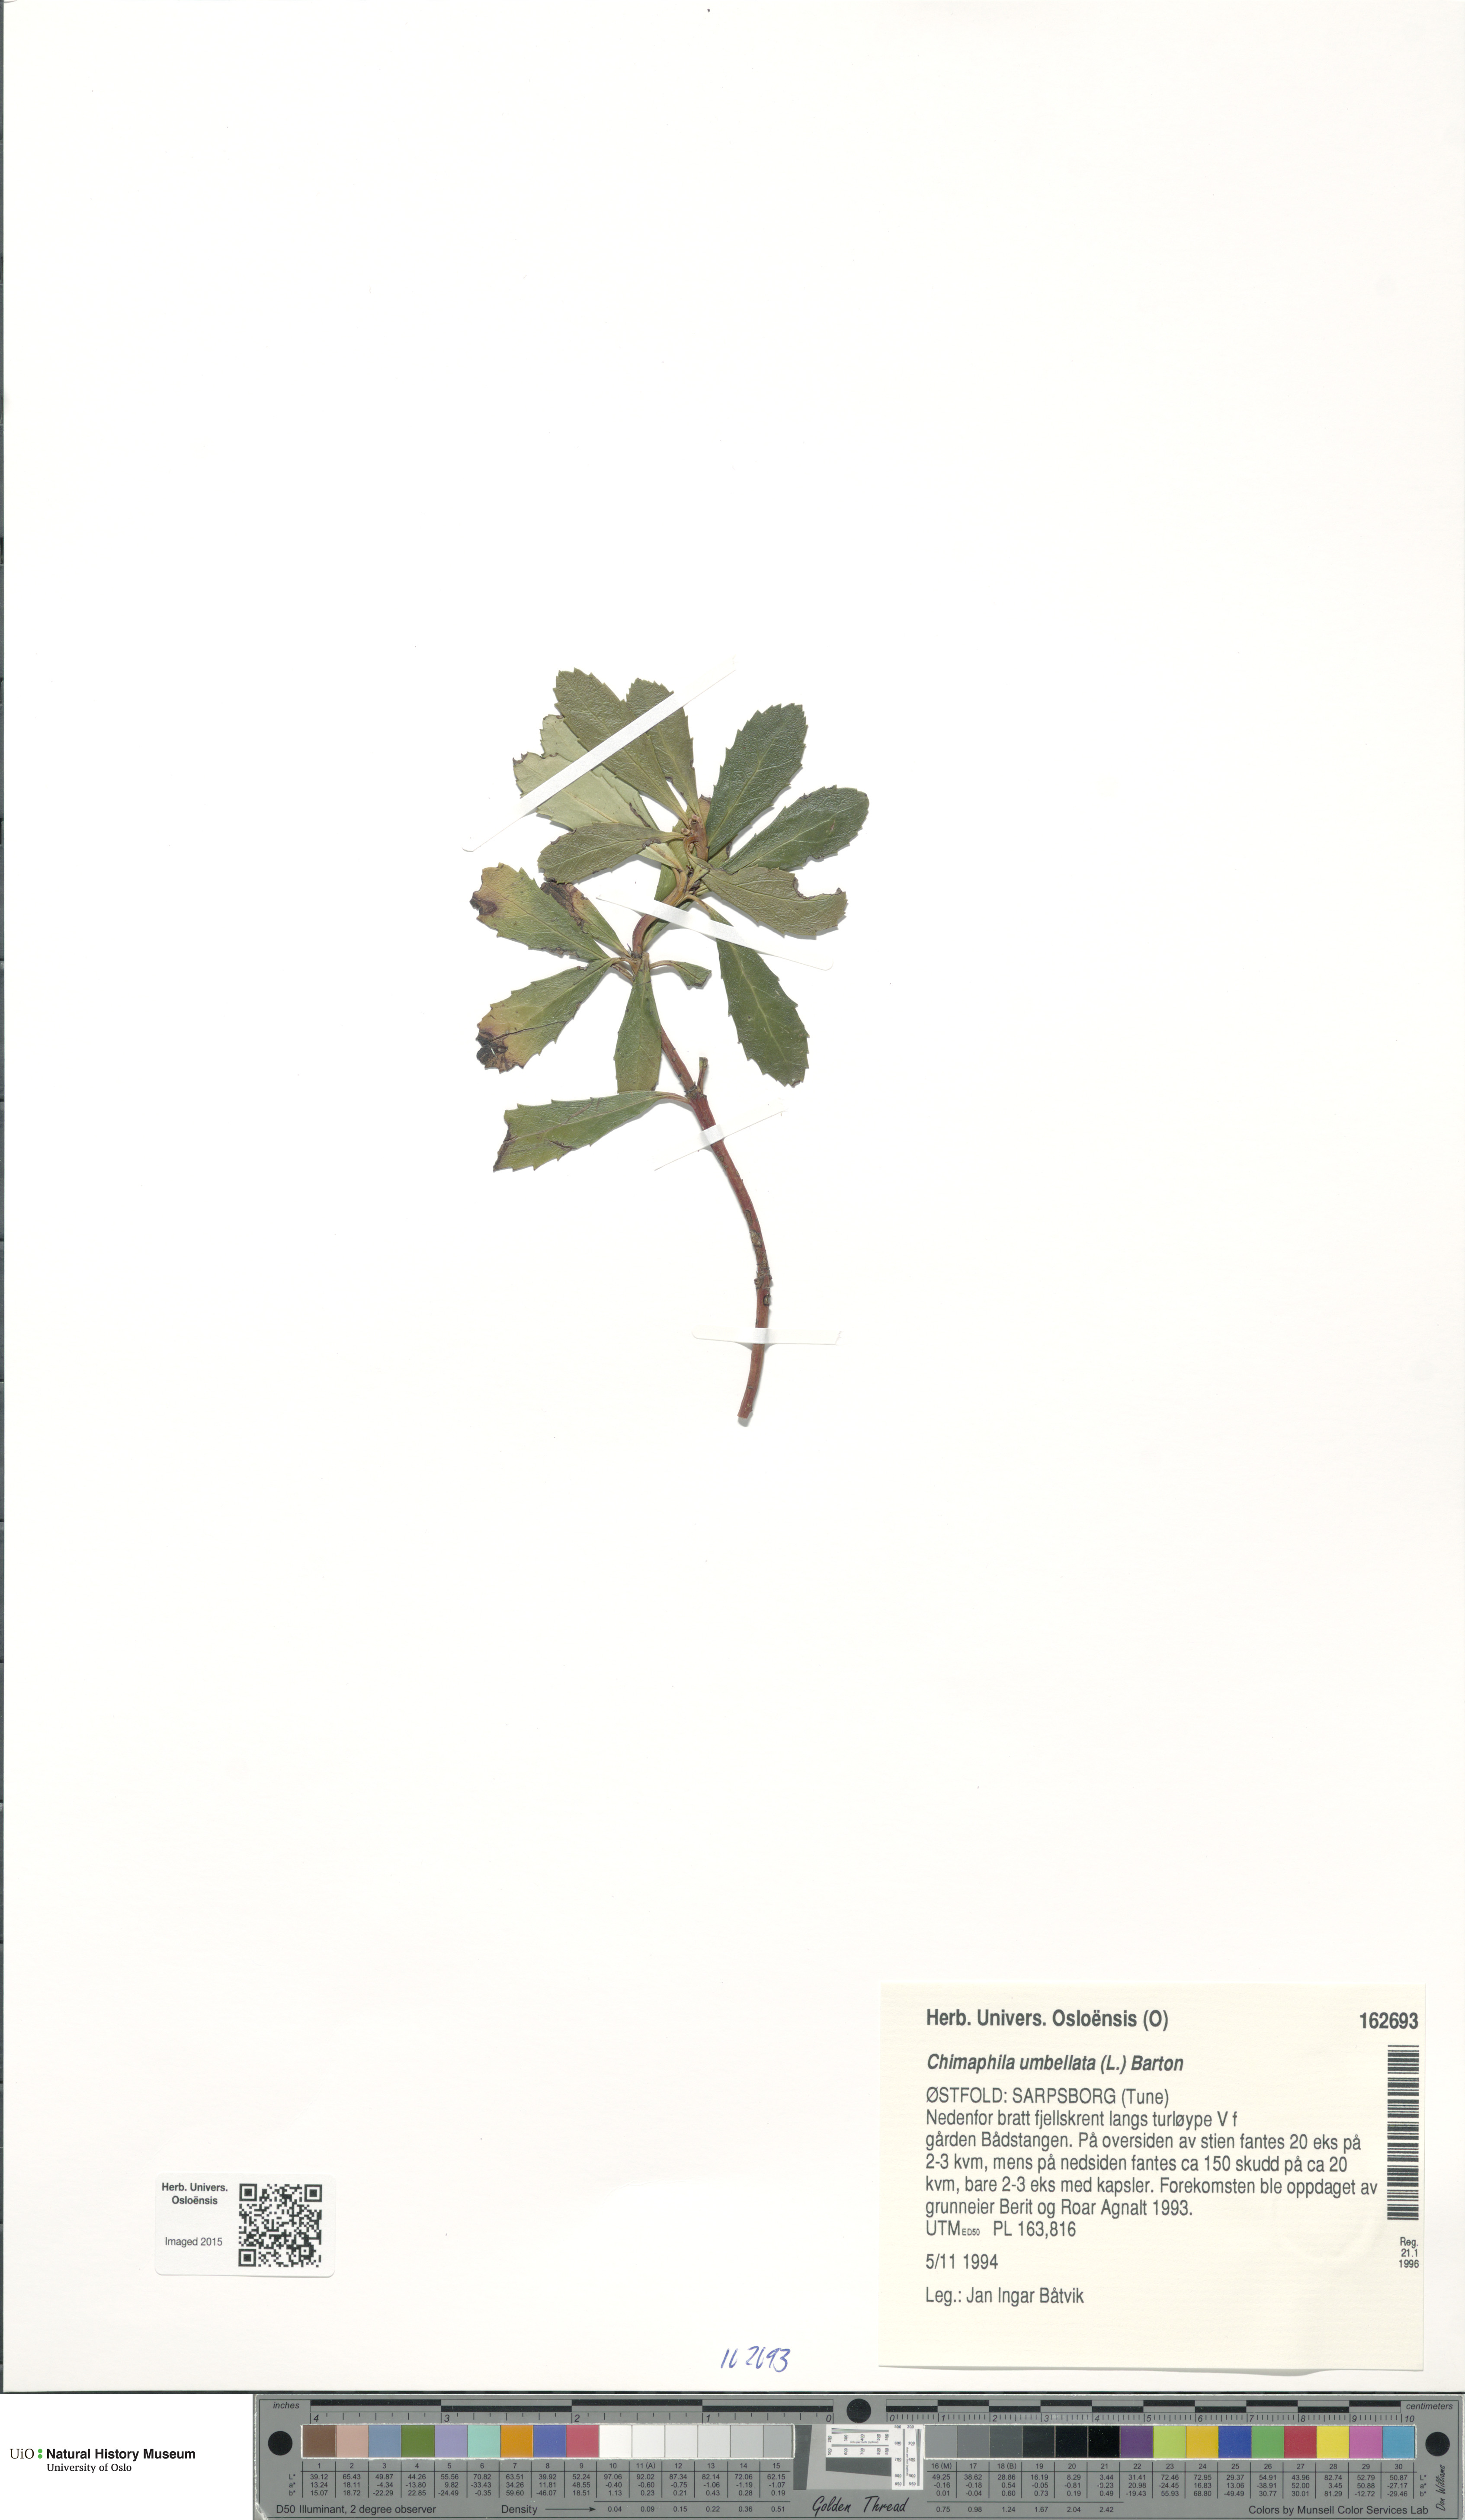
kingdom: Plantae
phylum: Tracheophyta
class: Magnoliopsida
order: Ericales
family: Ericaceae
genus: Chimaphila
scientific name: Chimaphila umbellata
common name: Pipsissewa
